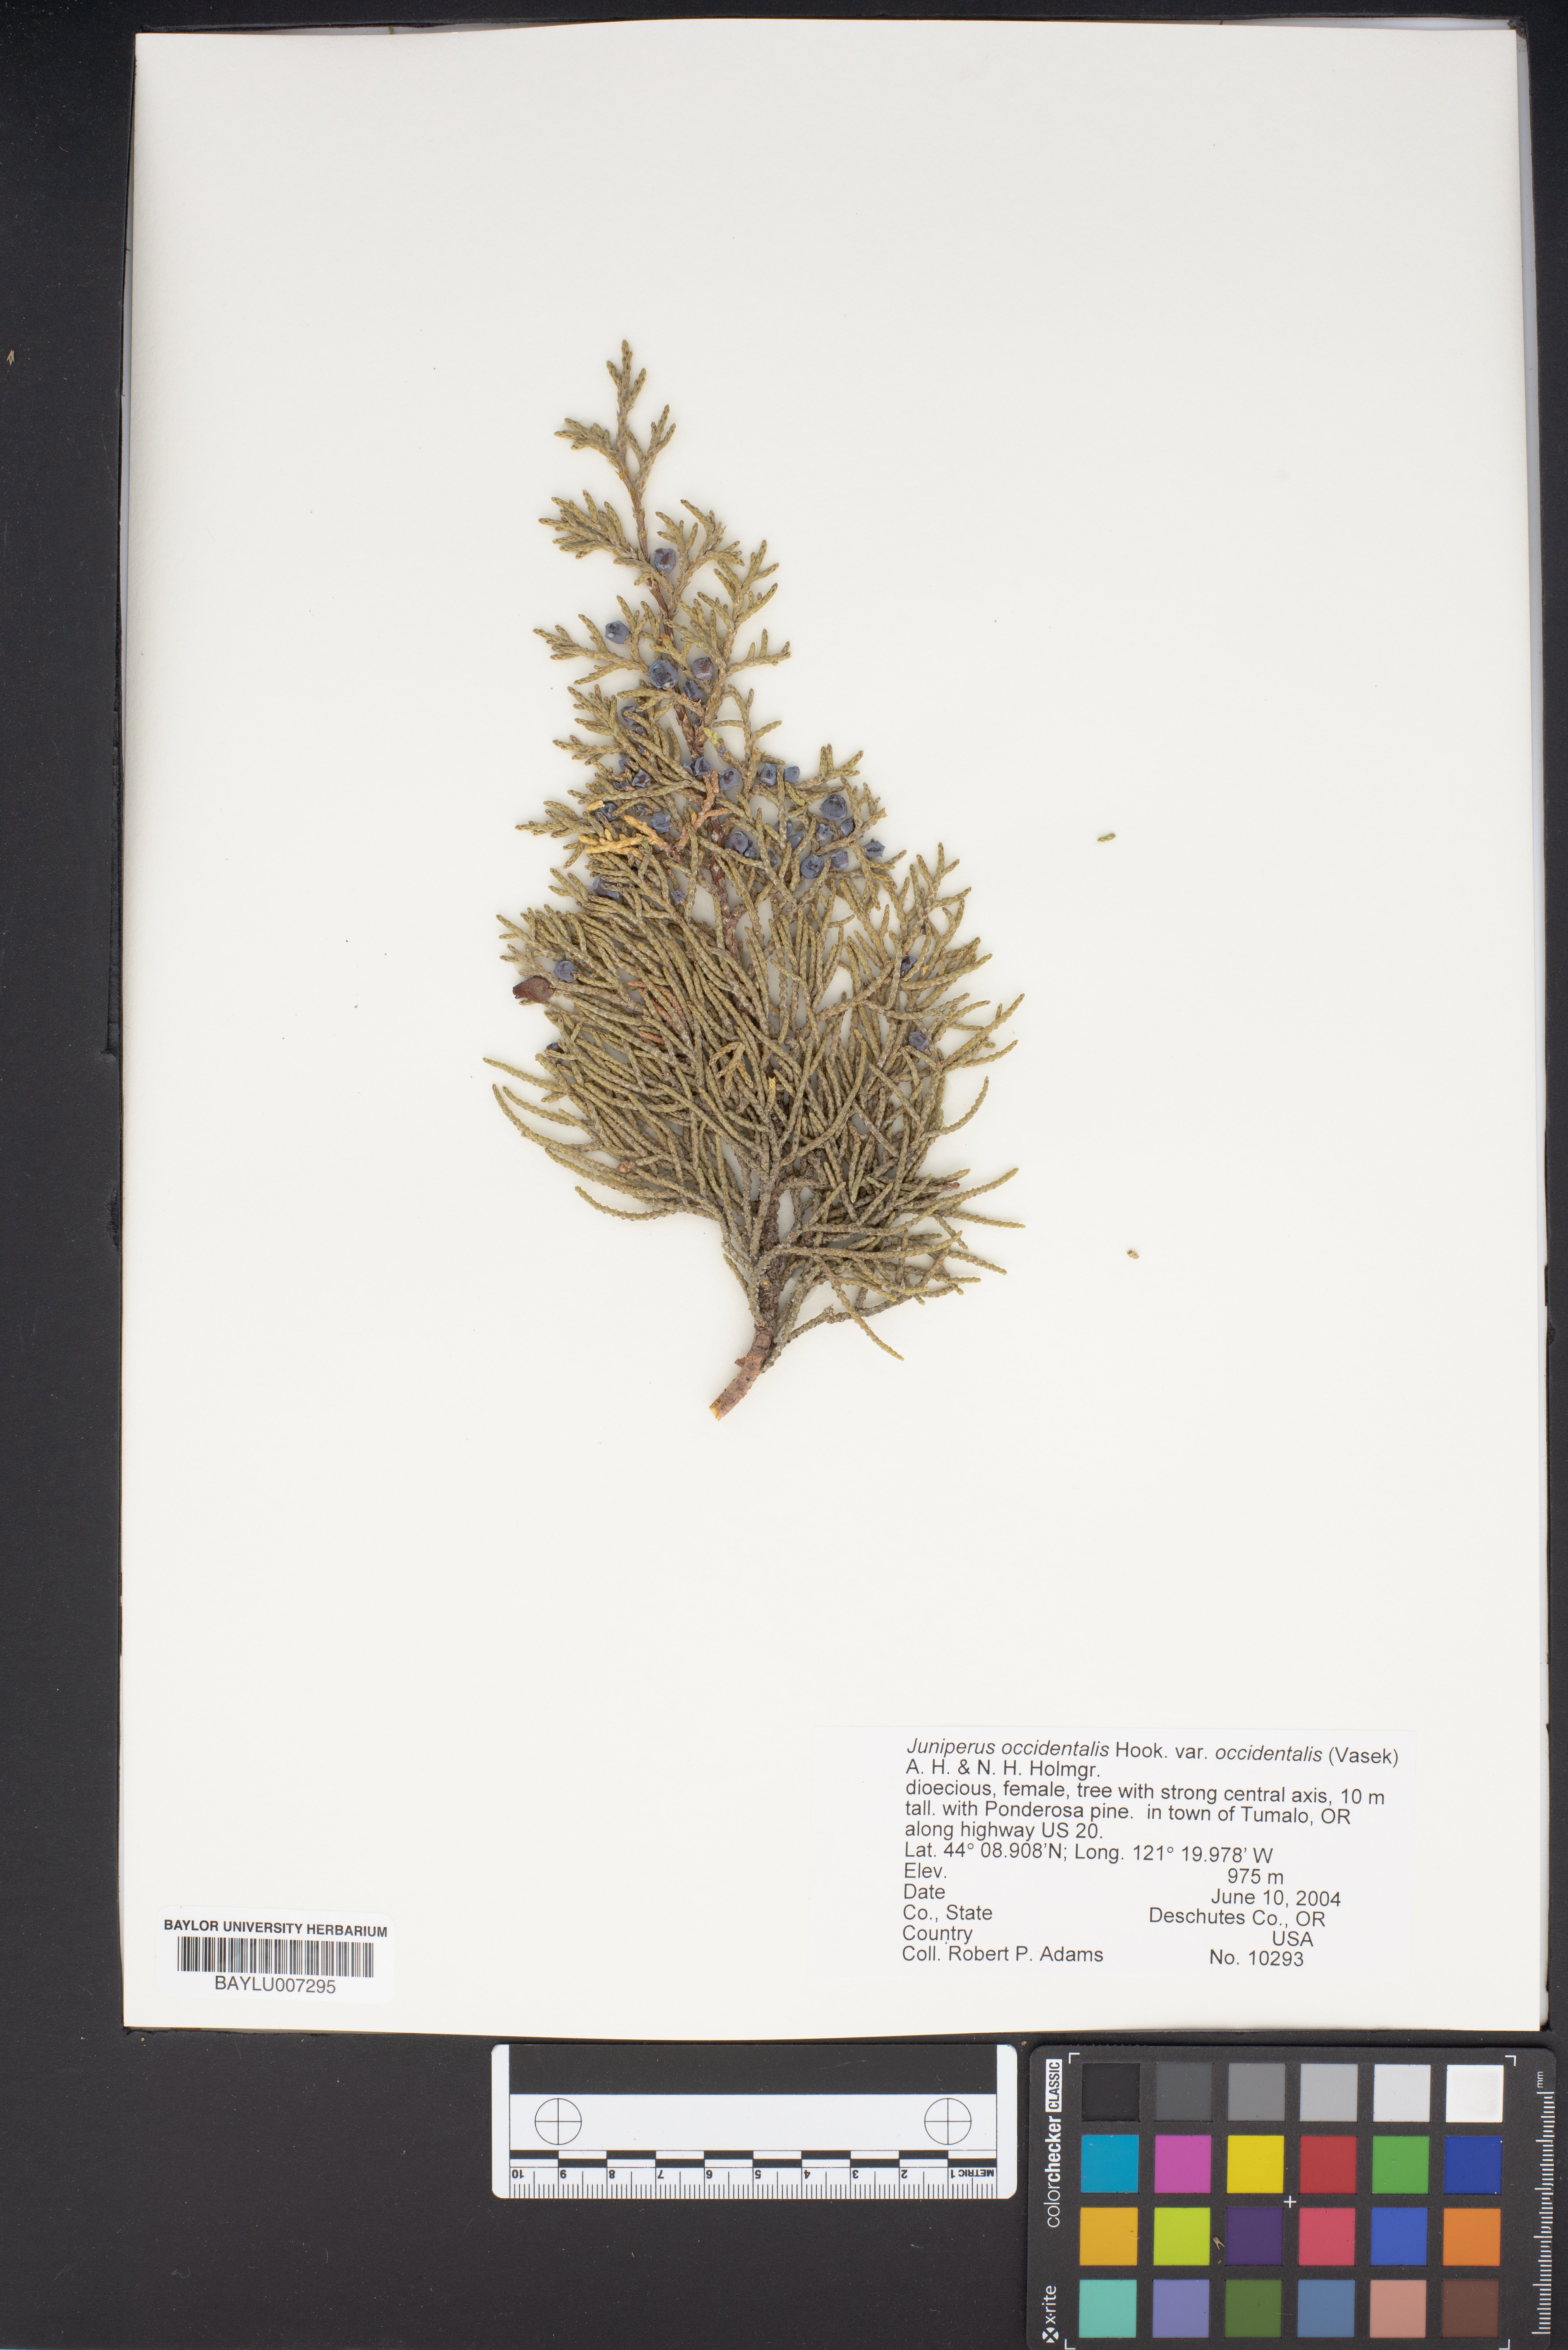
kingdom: Plantae
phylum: Tracheophyta
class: Pinopsida
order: Pinales
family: Cupressaceae
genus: Juniperus
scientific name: Juniperus occidentalis
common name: Western juniper
